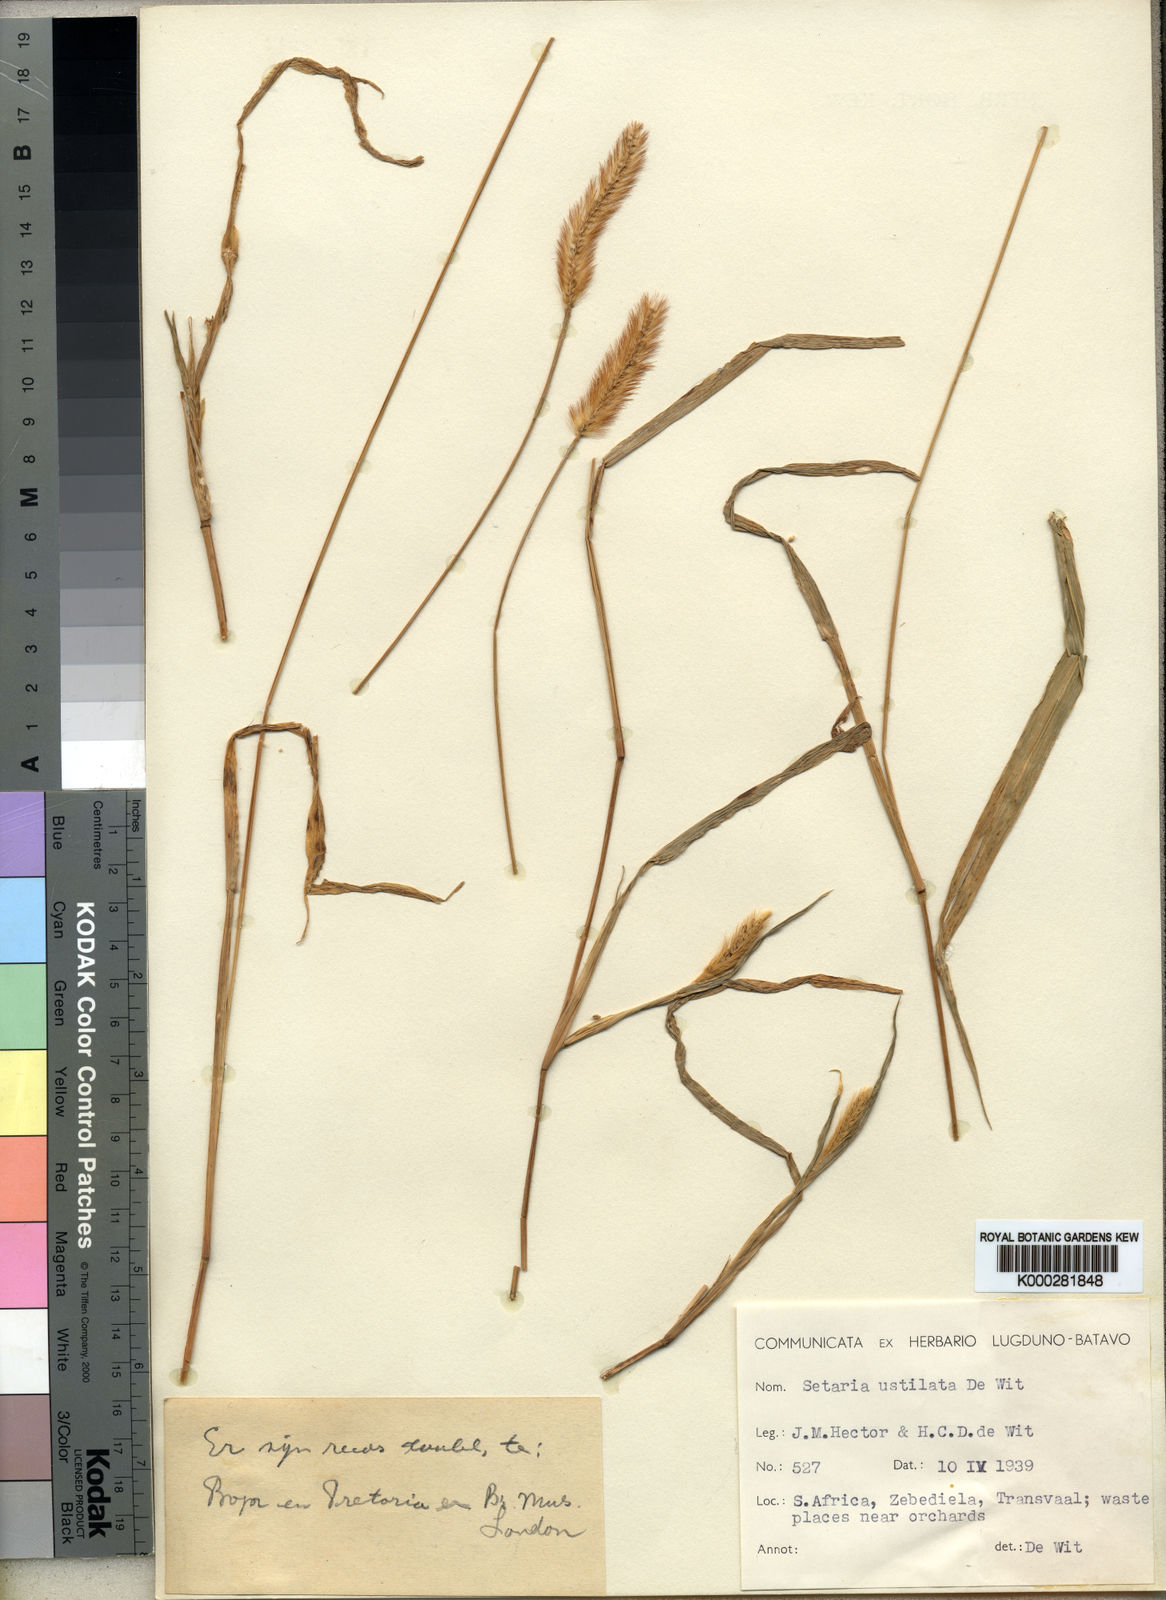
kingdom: Plantae
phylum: Tracheophyta
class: Liliopsida
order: Poales
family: Poaceae
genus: Setaria
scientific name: Setaria pumila
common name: Yellow bristle-grass
